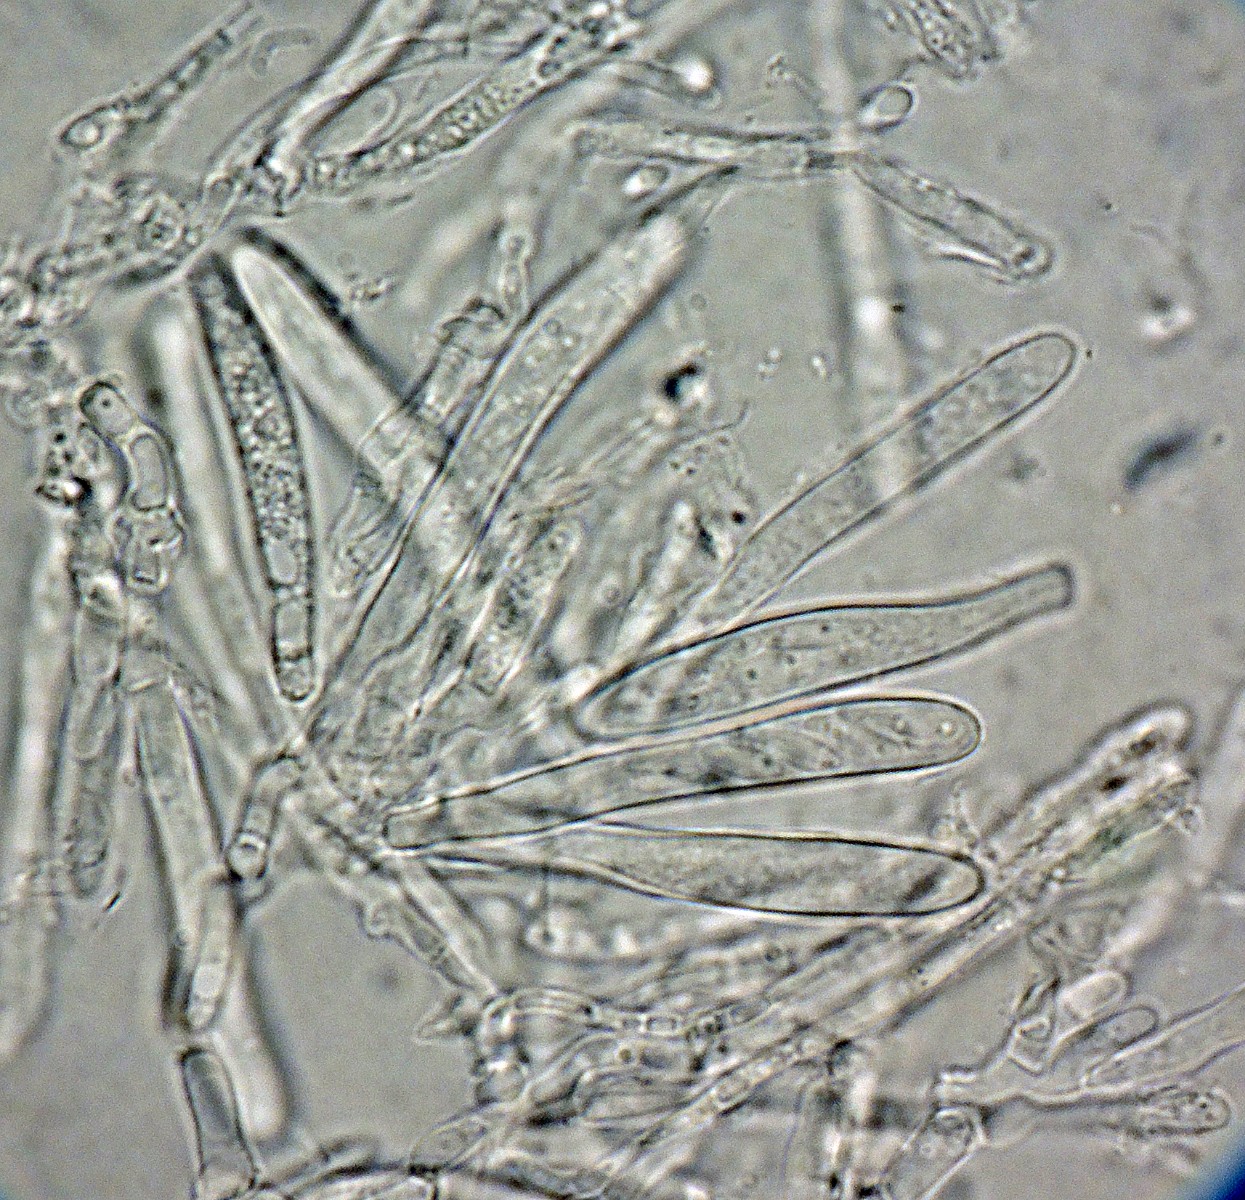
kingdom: Fungi
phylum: Ascomycota
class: Leotiomycetes
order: Helotiales
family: Pezizellaceae
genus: Mollisina
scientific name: Mollisina rubi
